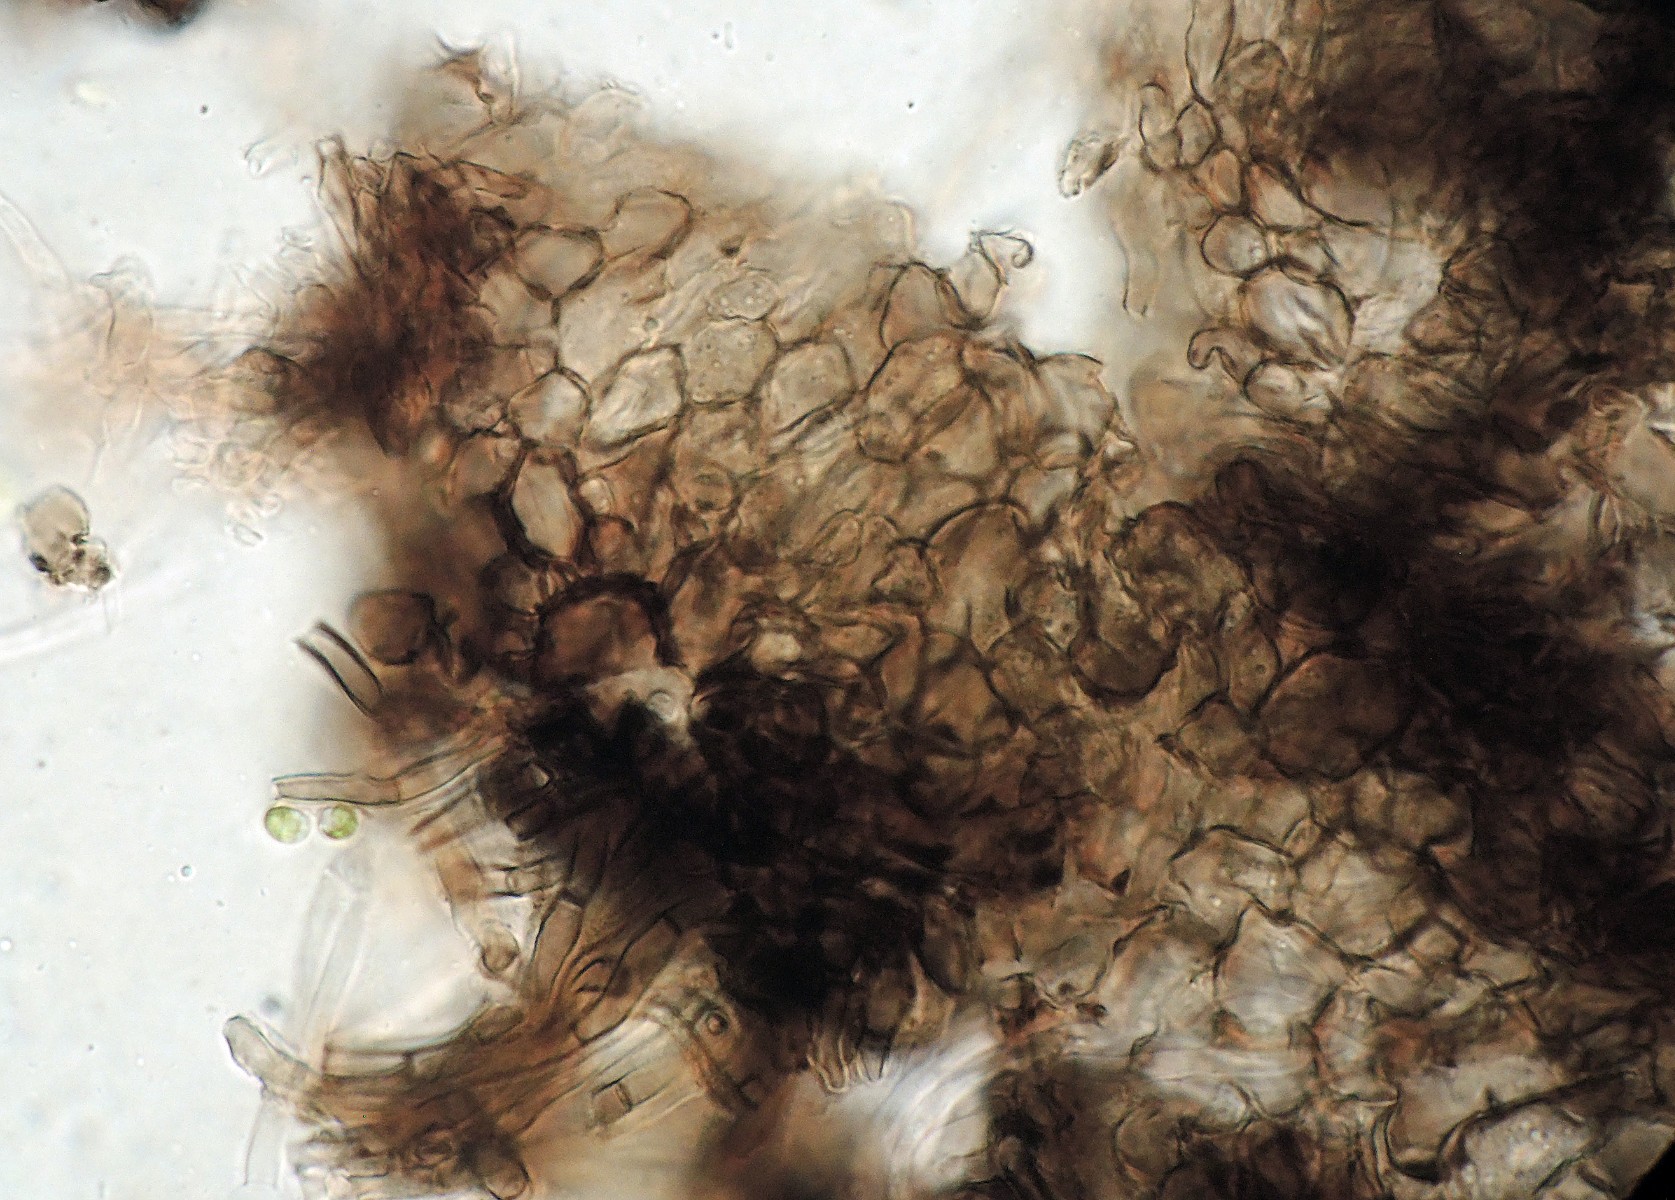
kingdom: Fungi
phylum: Ascomycota
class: Leotiomycetes
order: Helotiales
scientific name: Helotiales
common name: stilkskiveordenen
